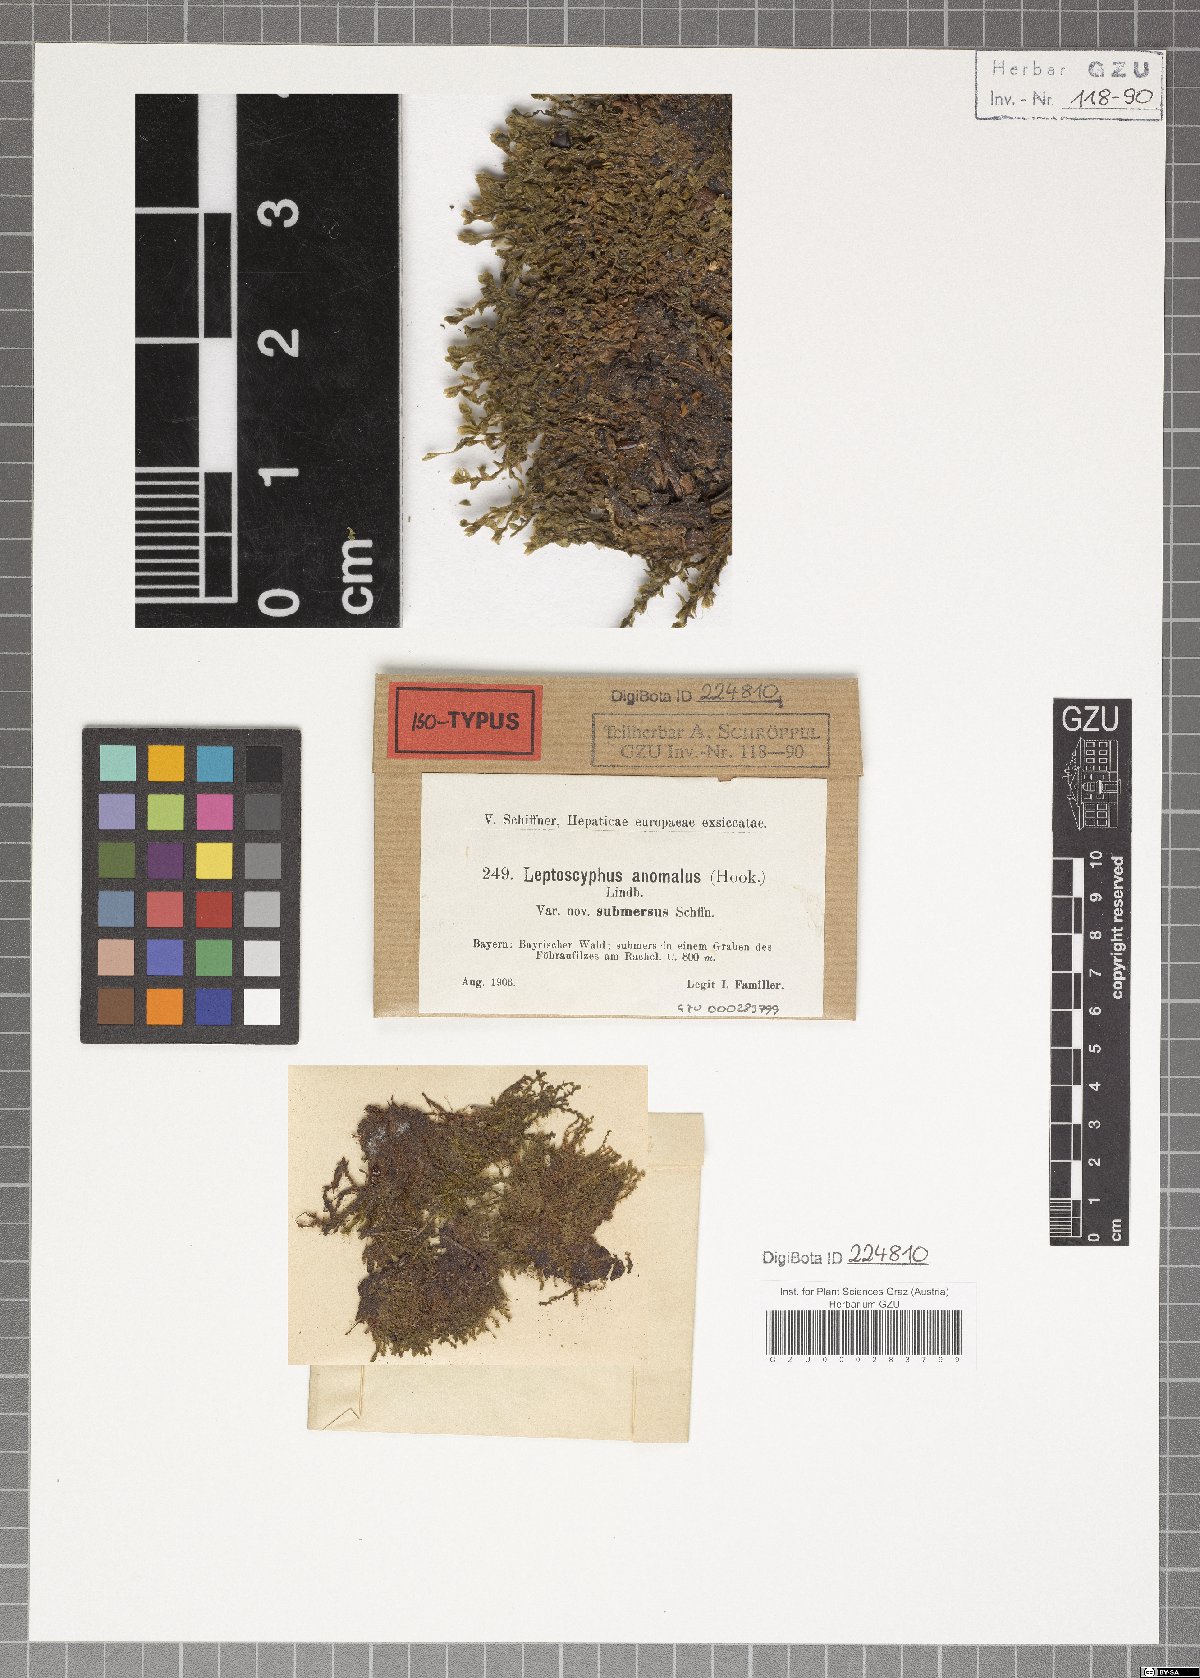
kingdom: Plantae
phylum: Marchantiophyta
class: Jungermanniopsida
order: Jungermanniales
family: Myliaceae
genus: Mylia
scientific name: Mylia anomala
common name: Anomalous flapwort
